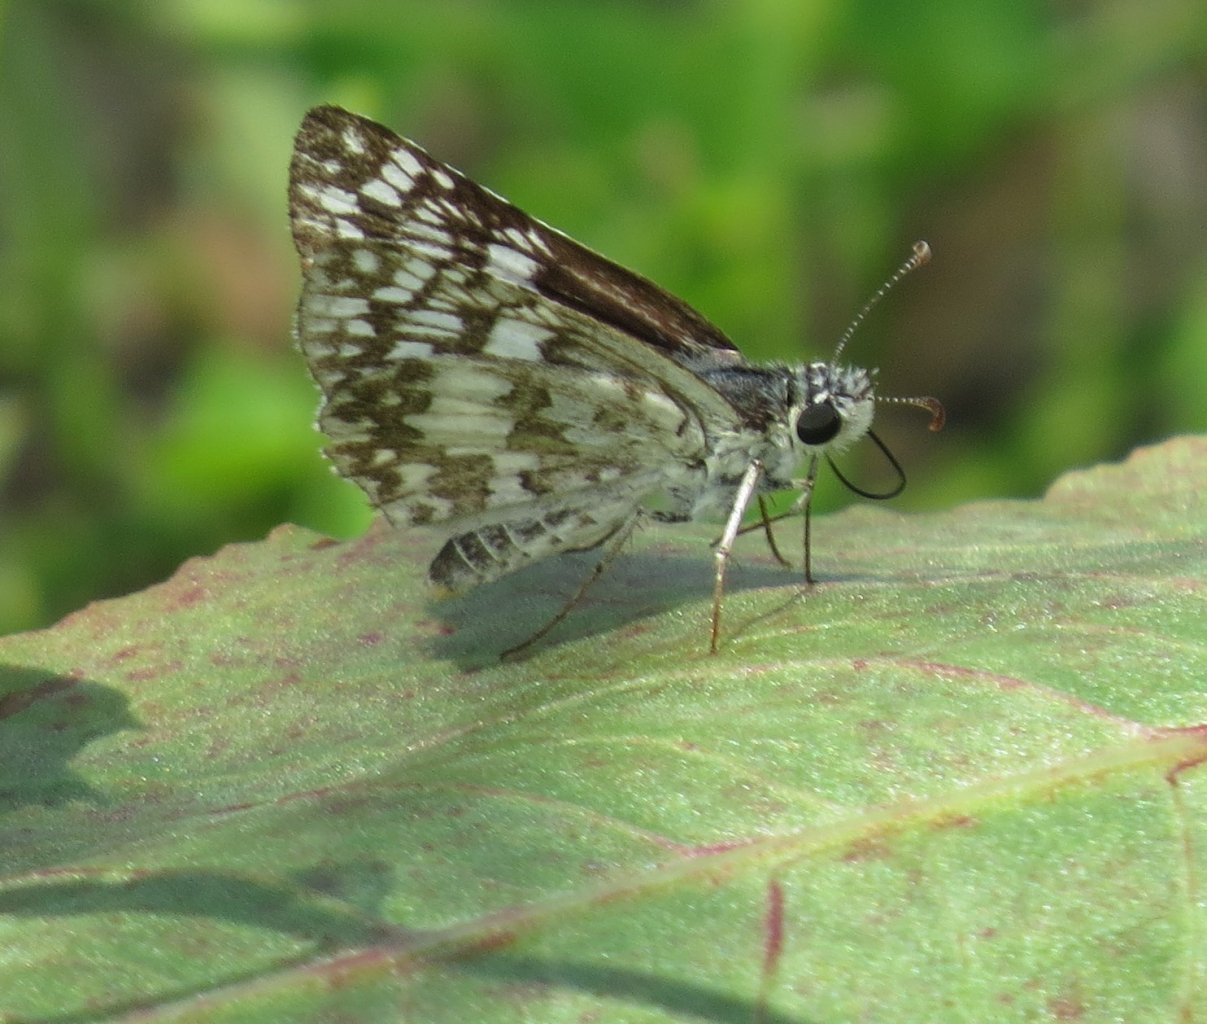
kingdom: Animalia
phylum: Arthropoda
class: Insecta
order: Lepidoptera
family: Hesperiidae
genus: Pyrgus
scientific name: Pyrgus communis
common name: White Checkered-Skipper
